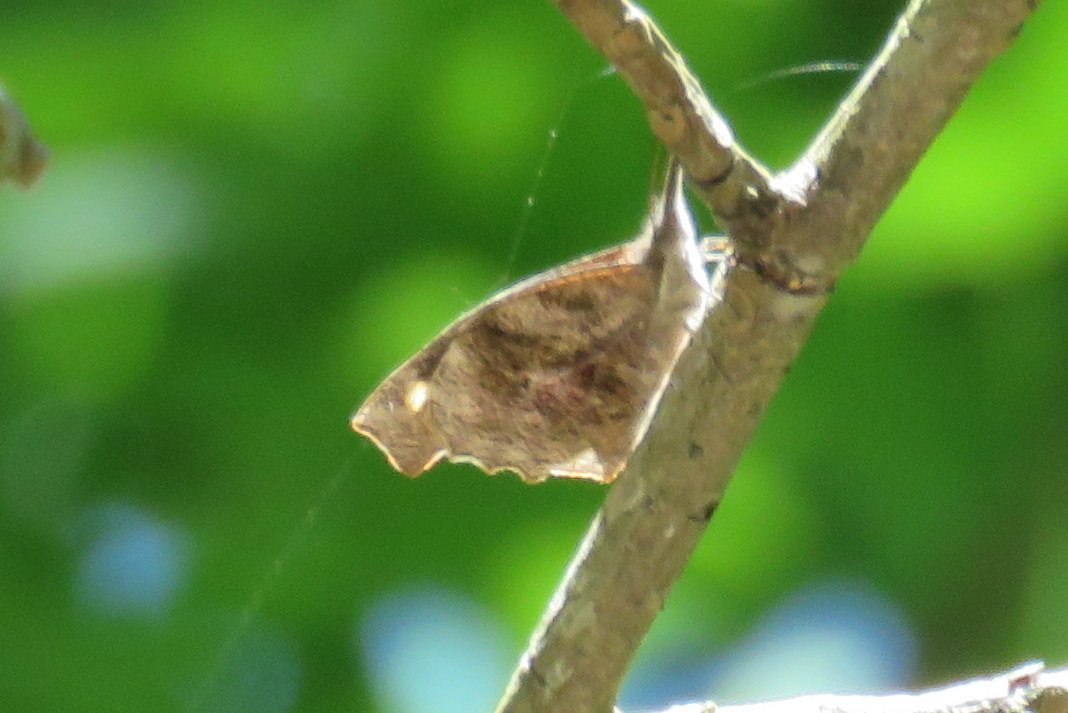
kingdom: Animalia
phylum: Arthropoda
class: Insecta
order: Lepidoptera
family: Nymphalidae
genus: Libytheana
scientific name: Libytheana carinenta
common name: American Snout
